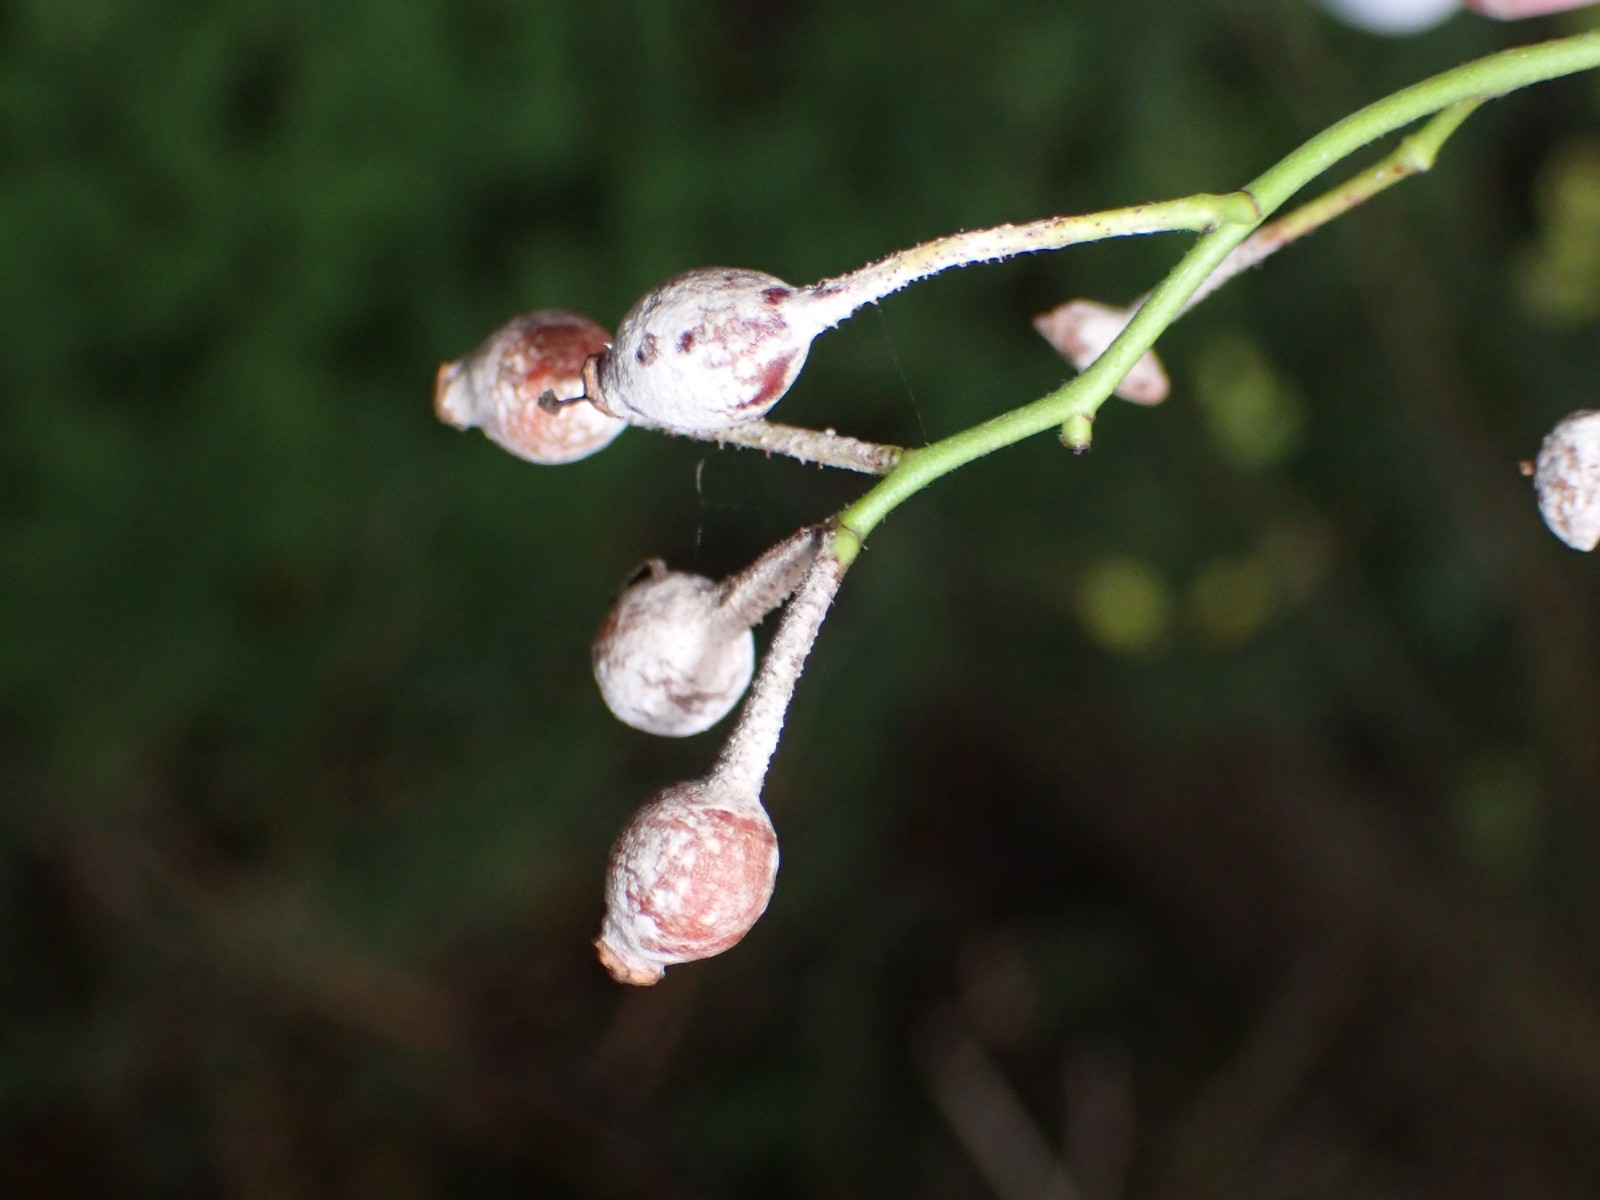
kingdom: Fungi
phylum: Ascomycota
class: Leotiomycetes
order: Helotiales
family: Erysiphaceae
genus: Podosphaera
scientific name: Podosphaera pannosa
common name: Rose mildew
